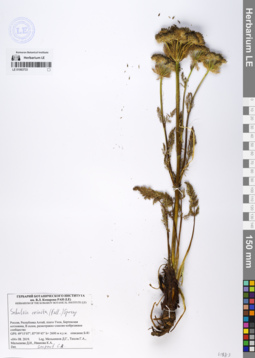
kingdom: Plantae
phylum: Tracheophyta
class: Magnoliopsida
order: Apiales
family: Apiaceae
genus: Schulzia
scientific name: Schulzia crinita
